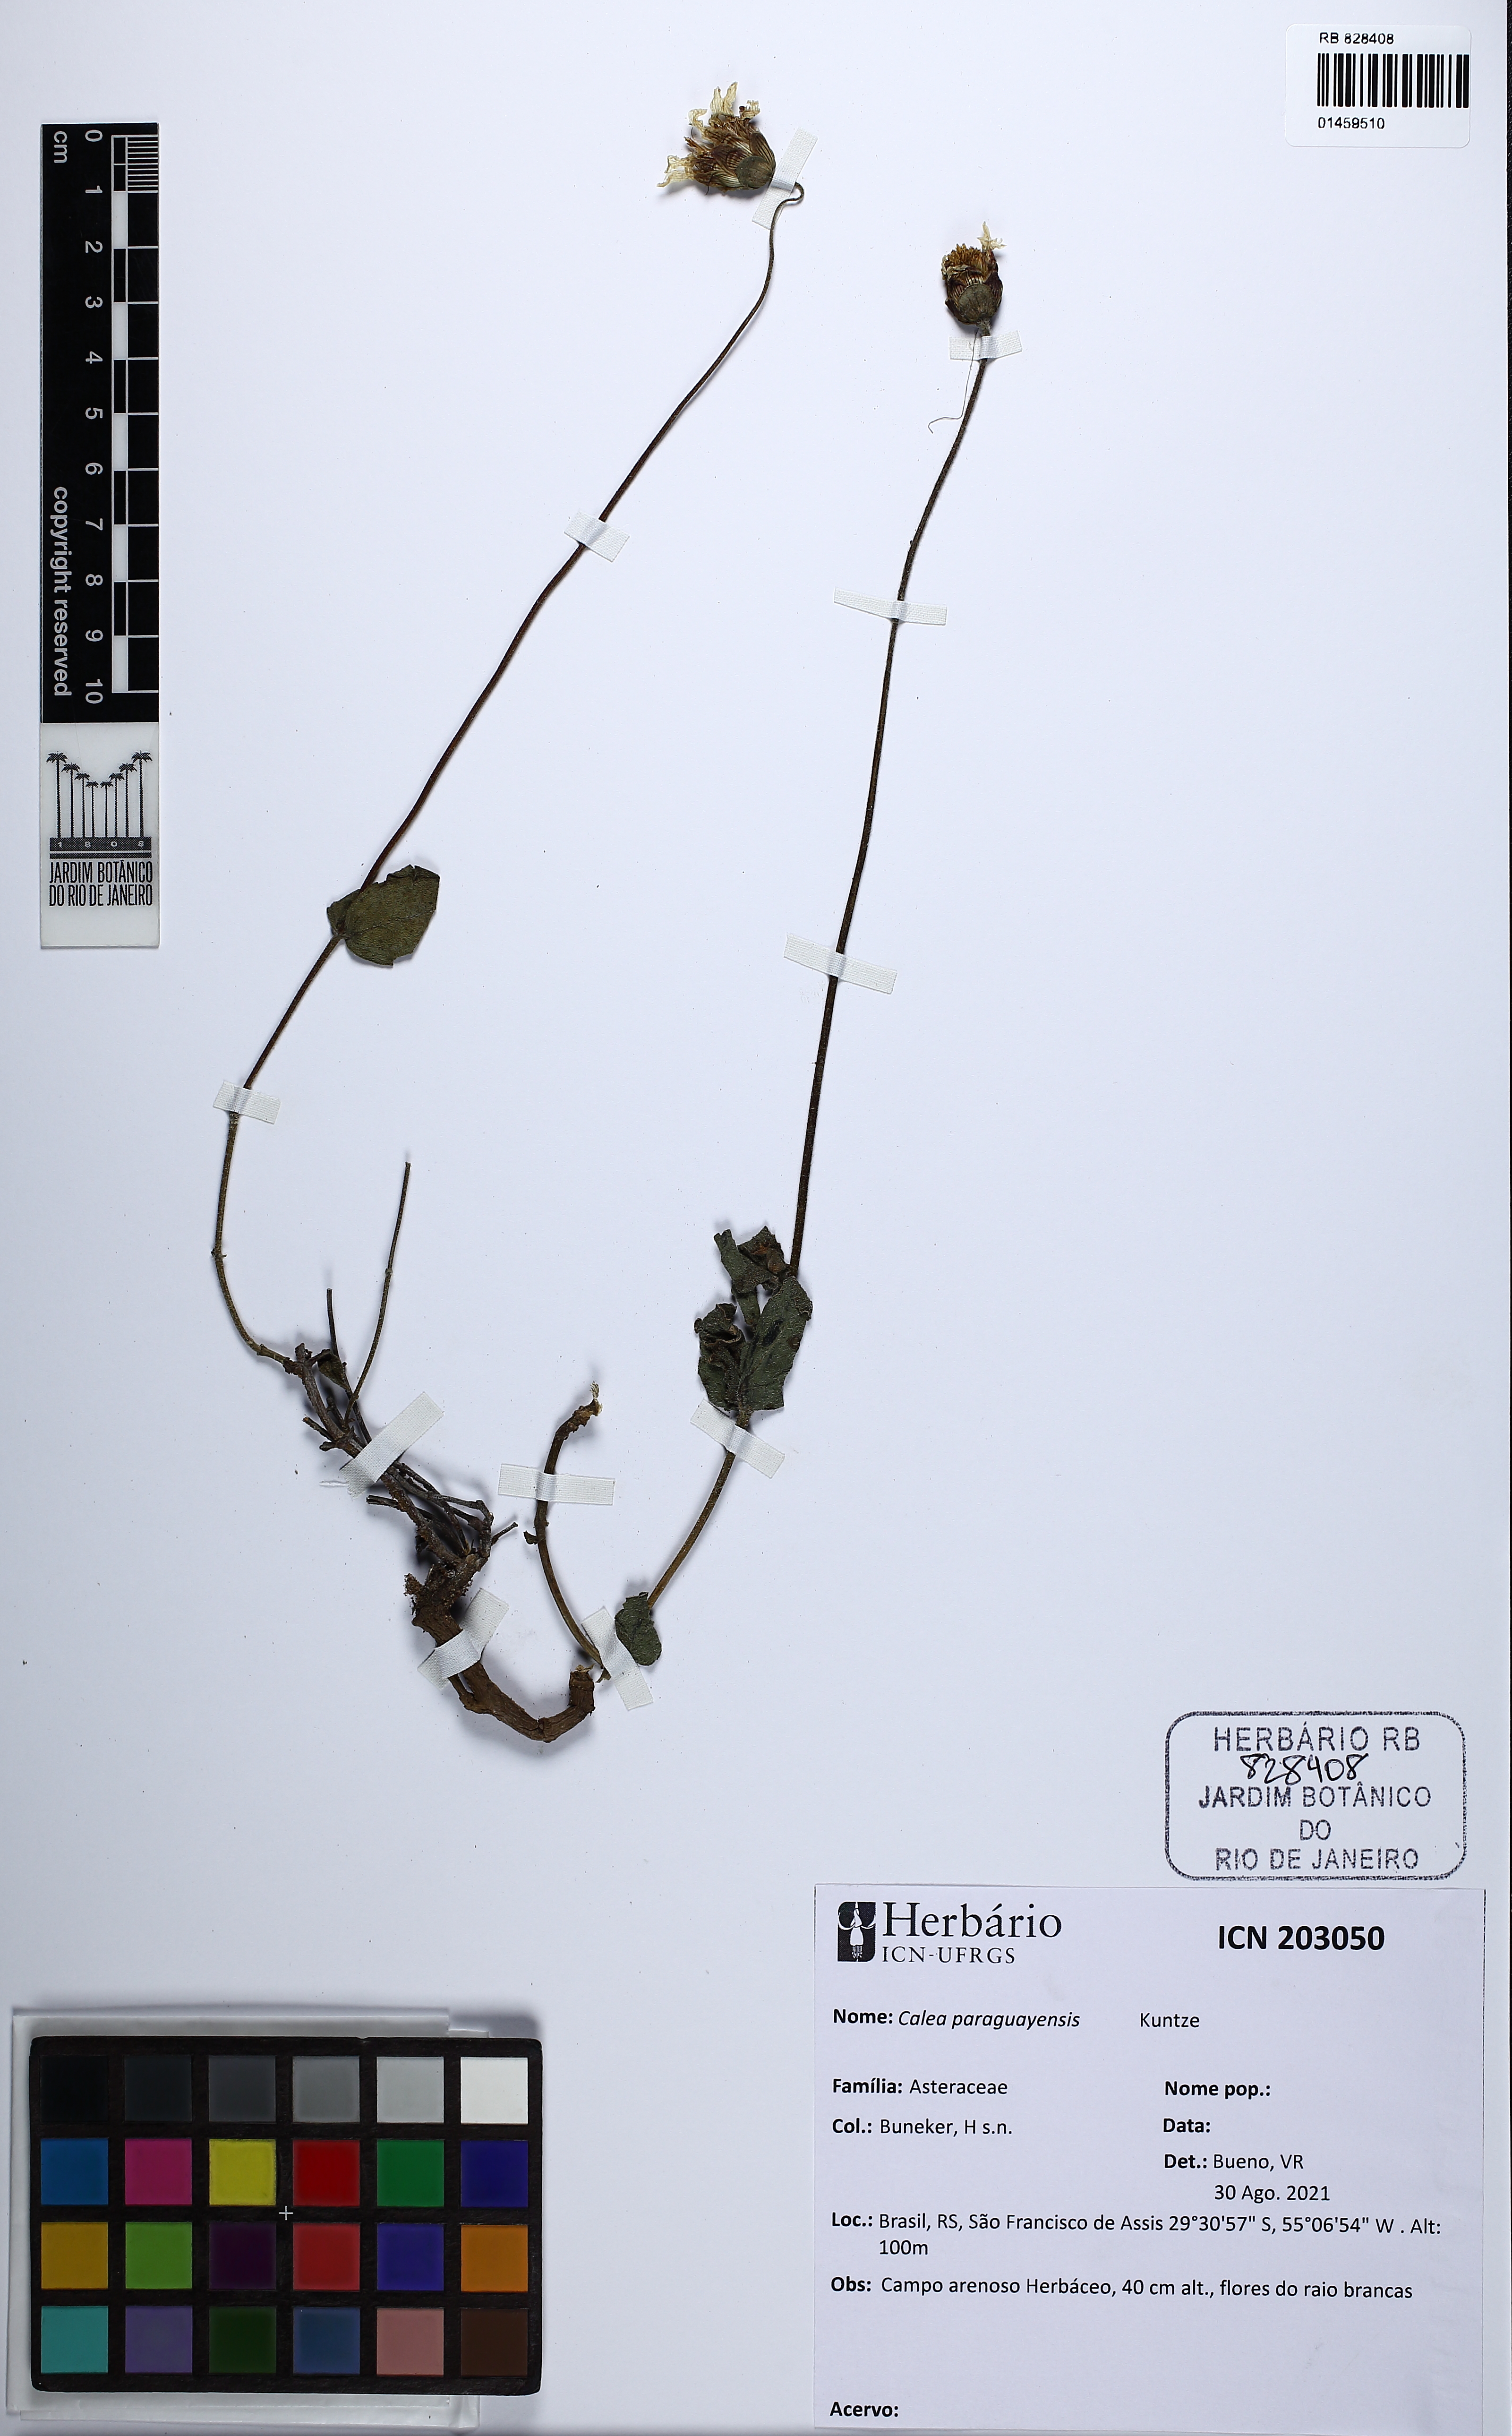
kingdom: Plantae
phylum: Tracheophyta
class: Magnoliopsida
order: Asterales
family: Asteraceae
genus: Calea
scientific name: Calea paraguayensis
